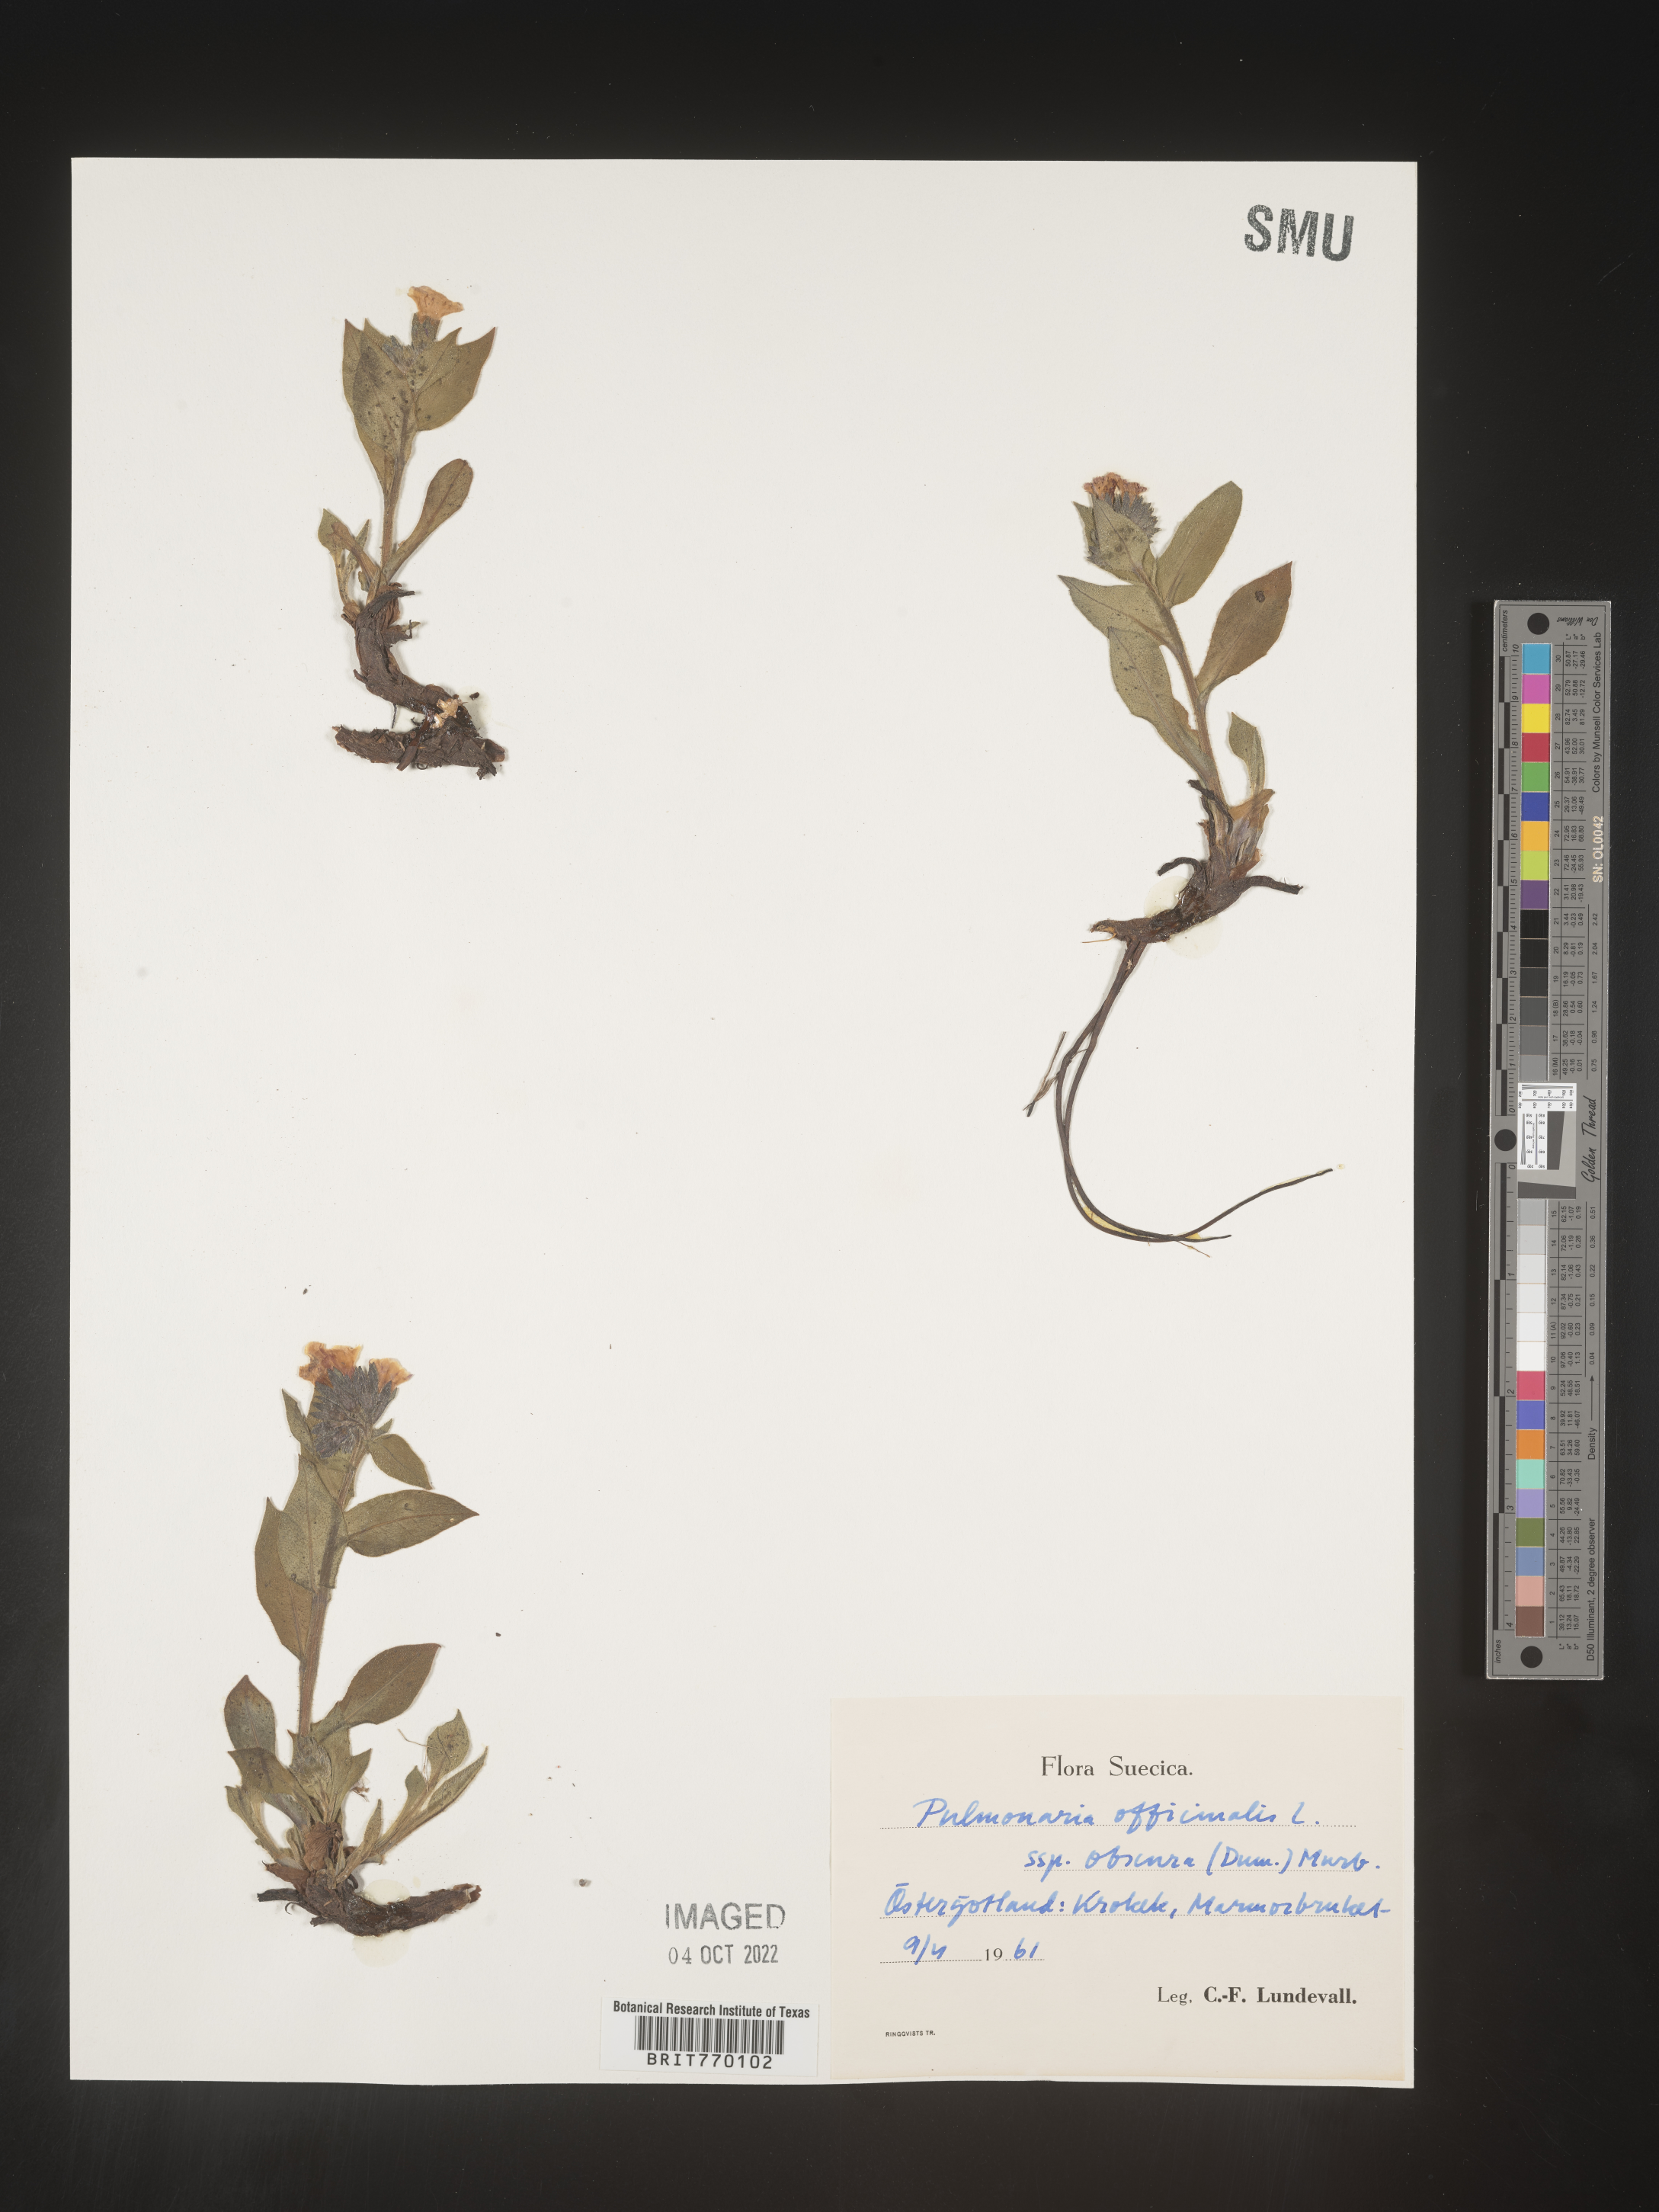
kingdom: Plantae
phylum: Tracheophyta
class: Magnoliopsida
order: Boraginales
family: Boraginaceae
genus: Pulmonaria
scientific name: Pulmonaria
